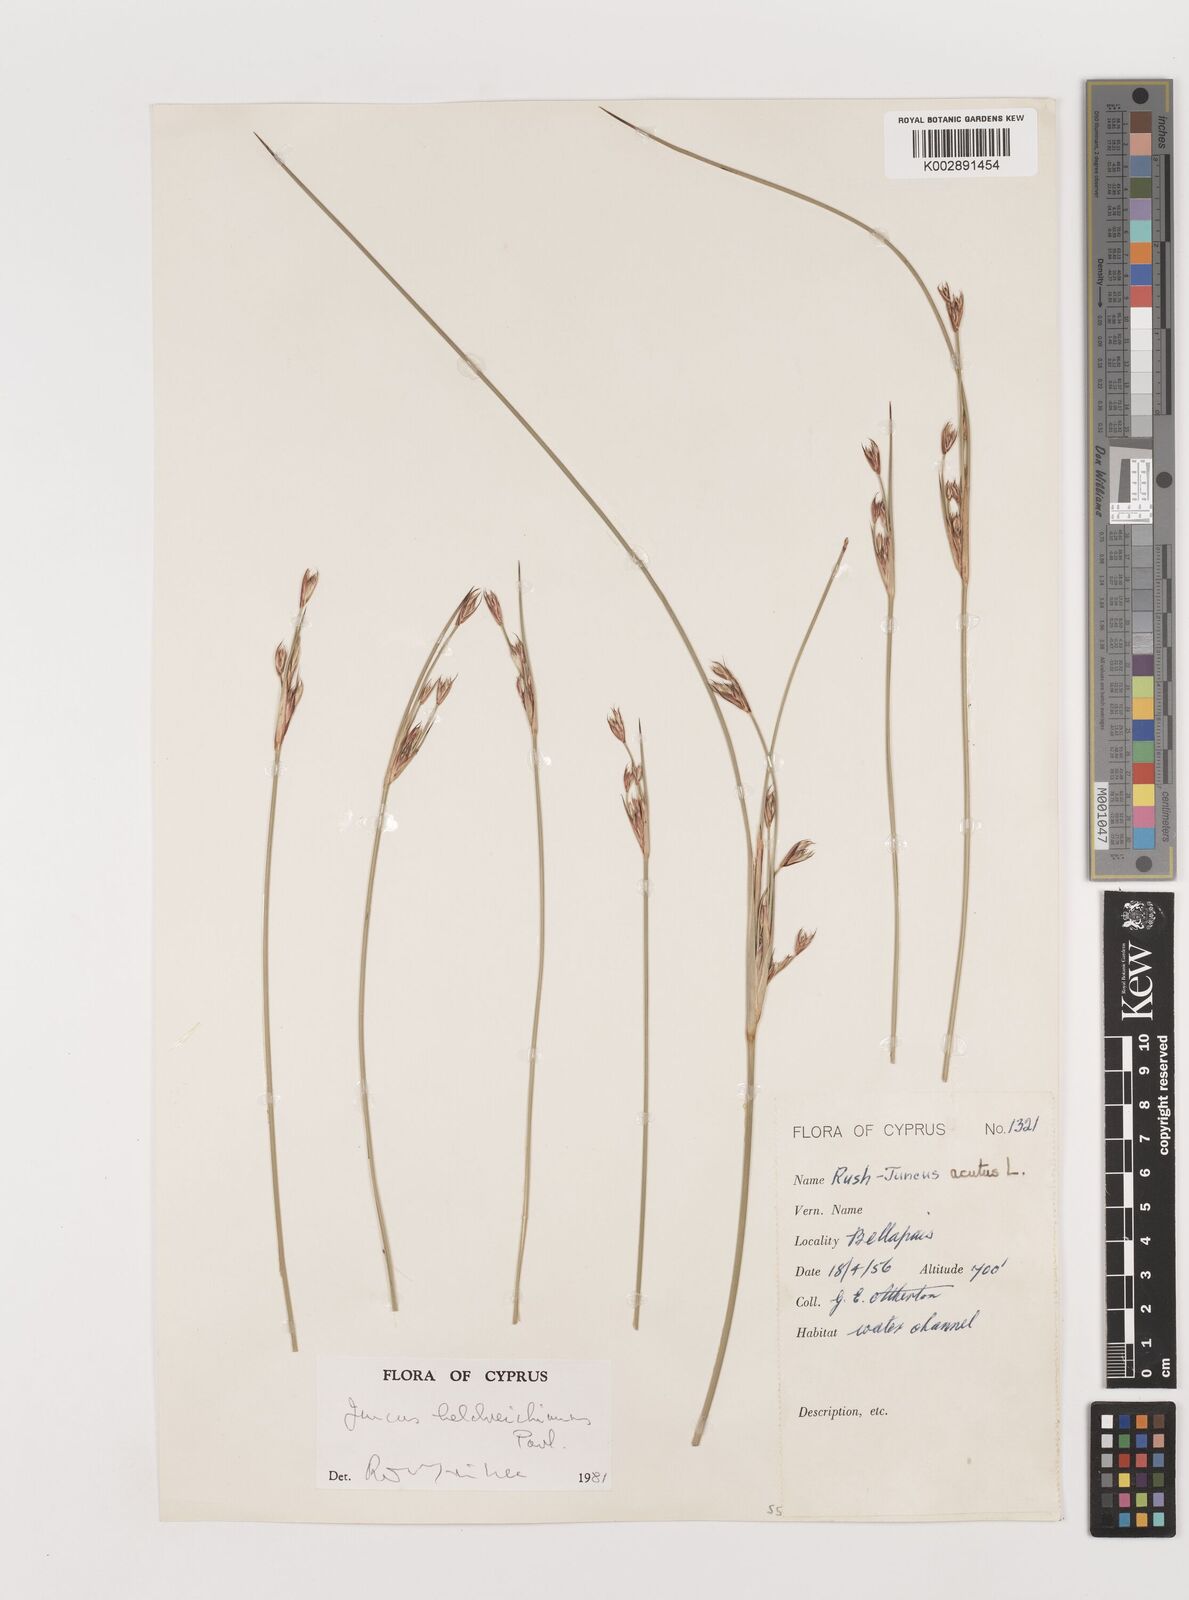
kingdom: Plantae
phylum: Tracheophyta
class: Liliopsida
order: Poales
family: Juncaceae
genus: Juncus
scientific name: Juncus heldreichianus
